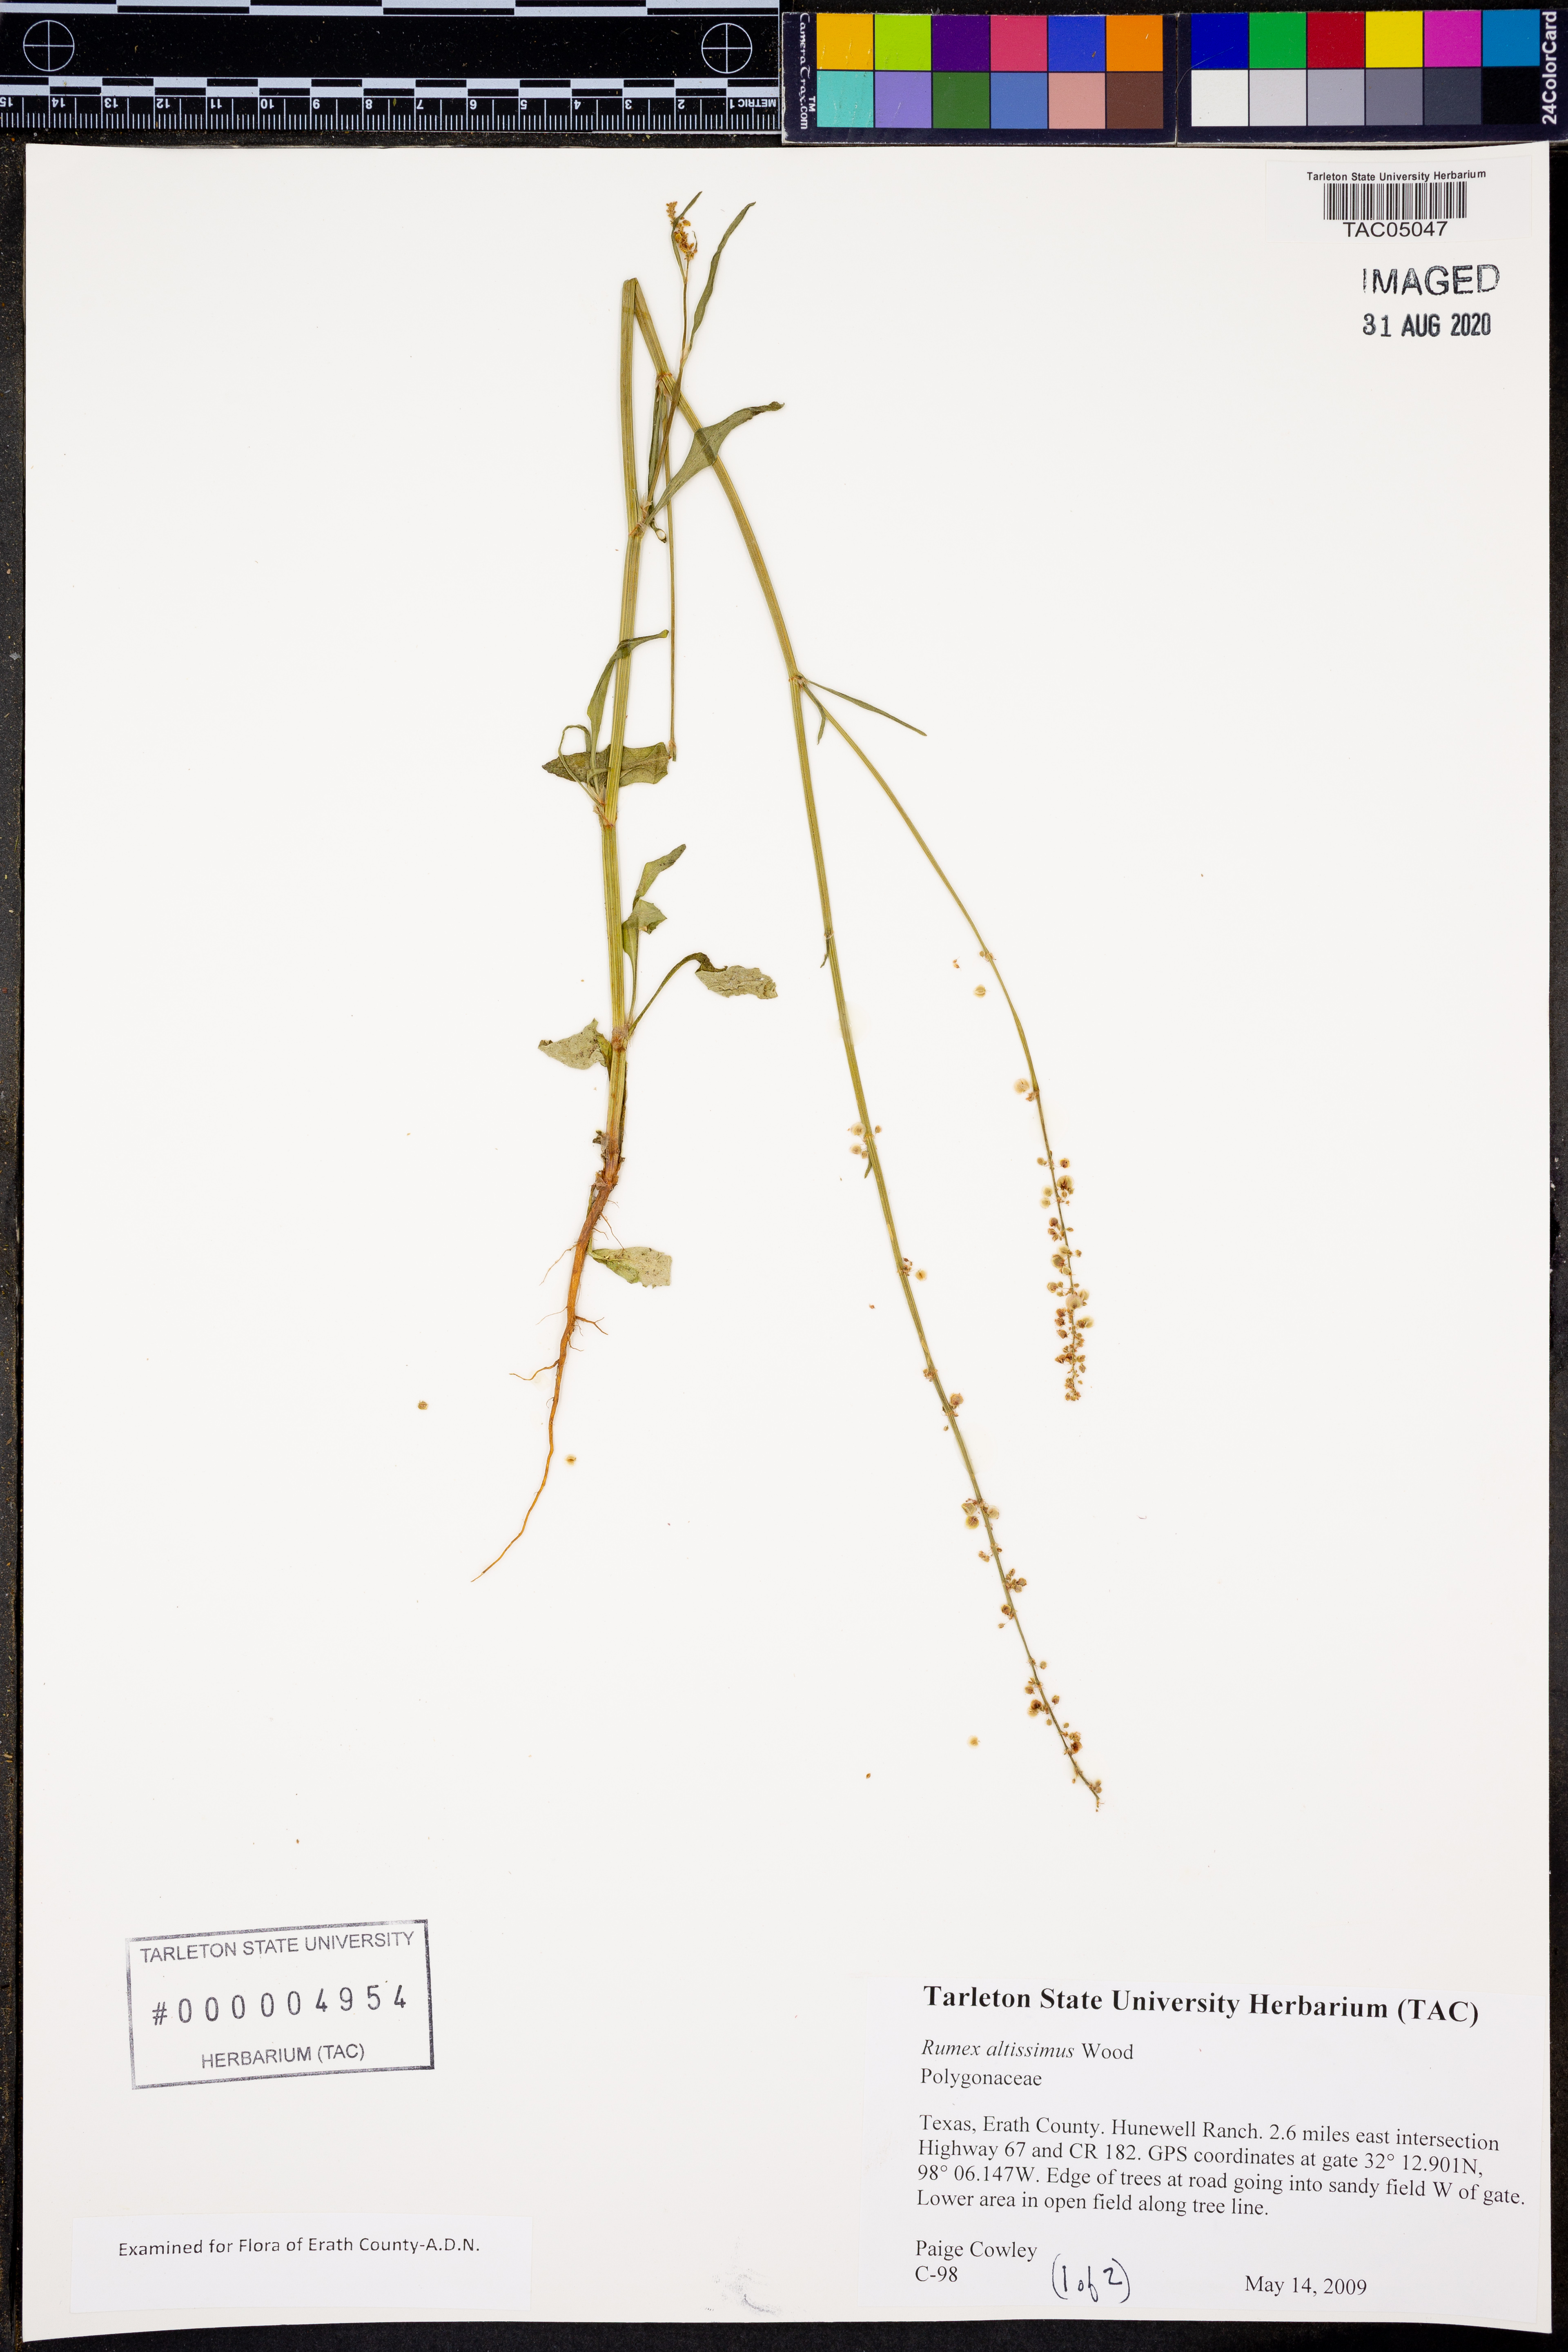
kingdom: Plantae
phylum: Tracheophyta
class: Magnoliopsida
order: Caryophyllales
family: Polygonaceae
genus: Rumex
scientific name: Rumex altissimus
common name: Smooth dock
